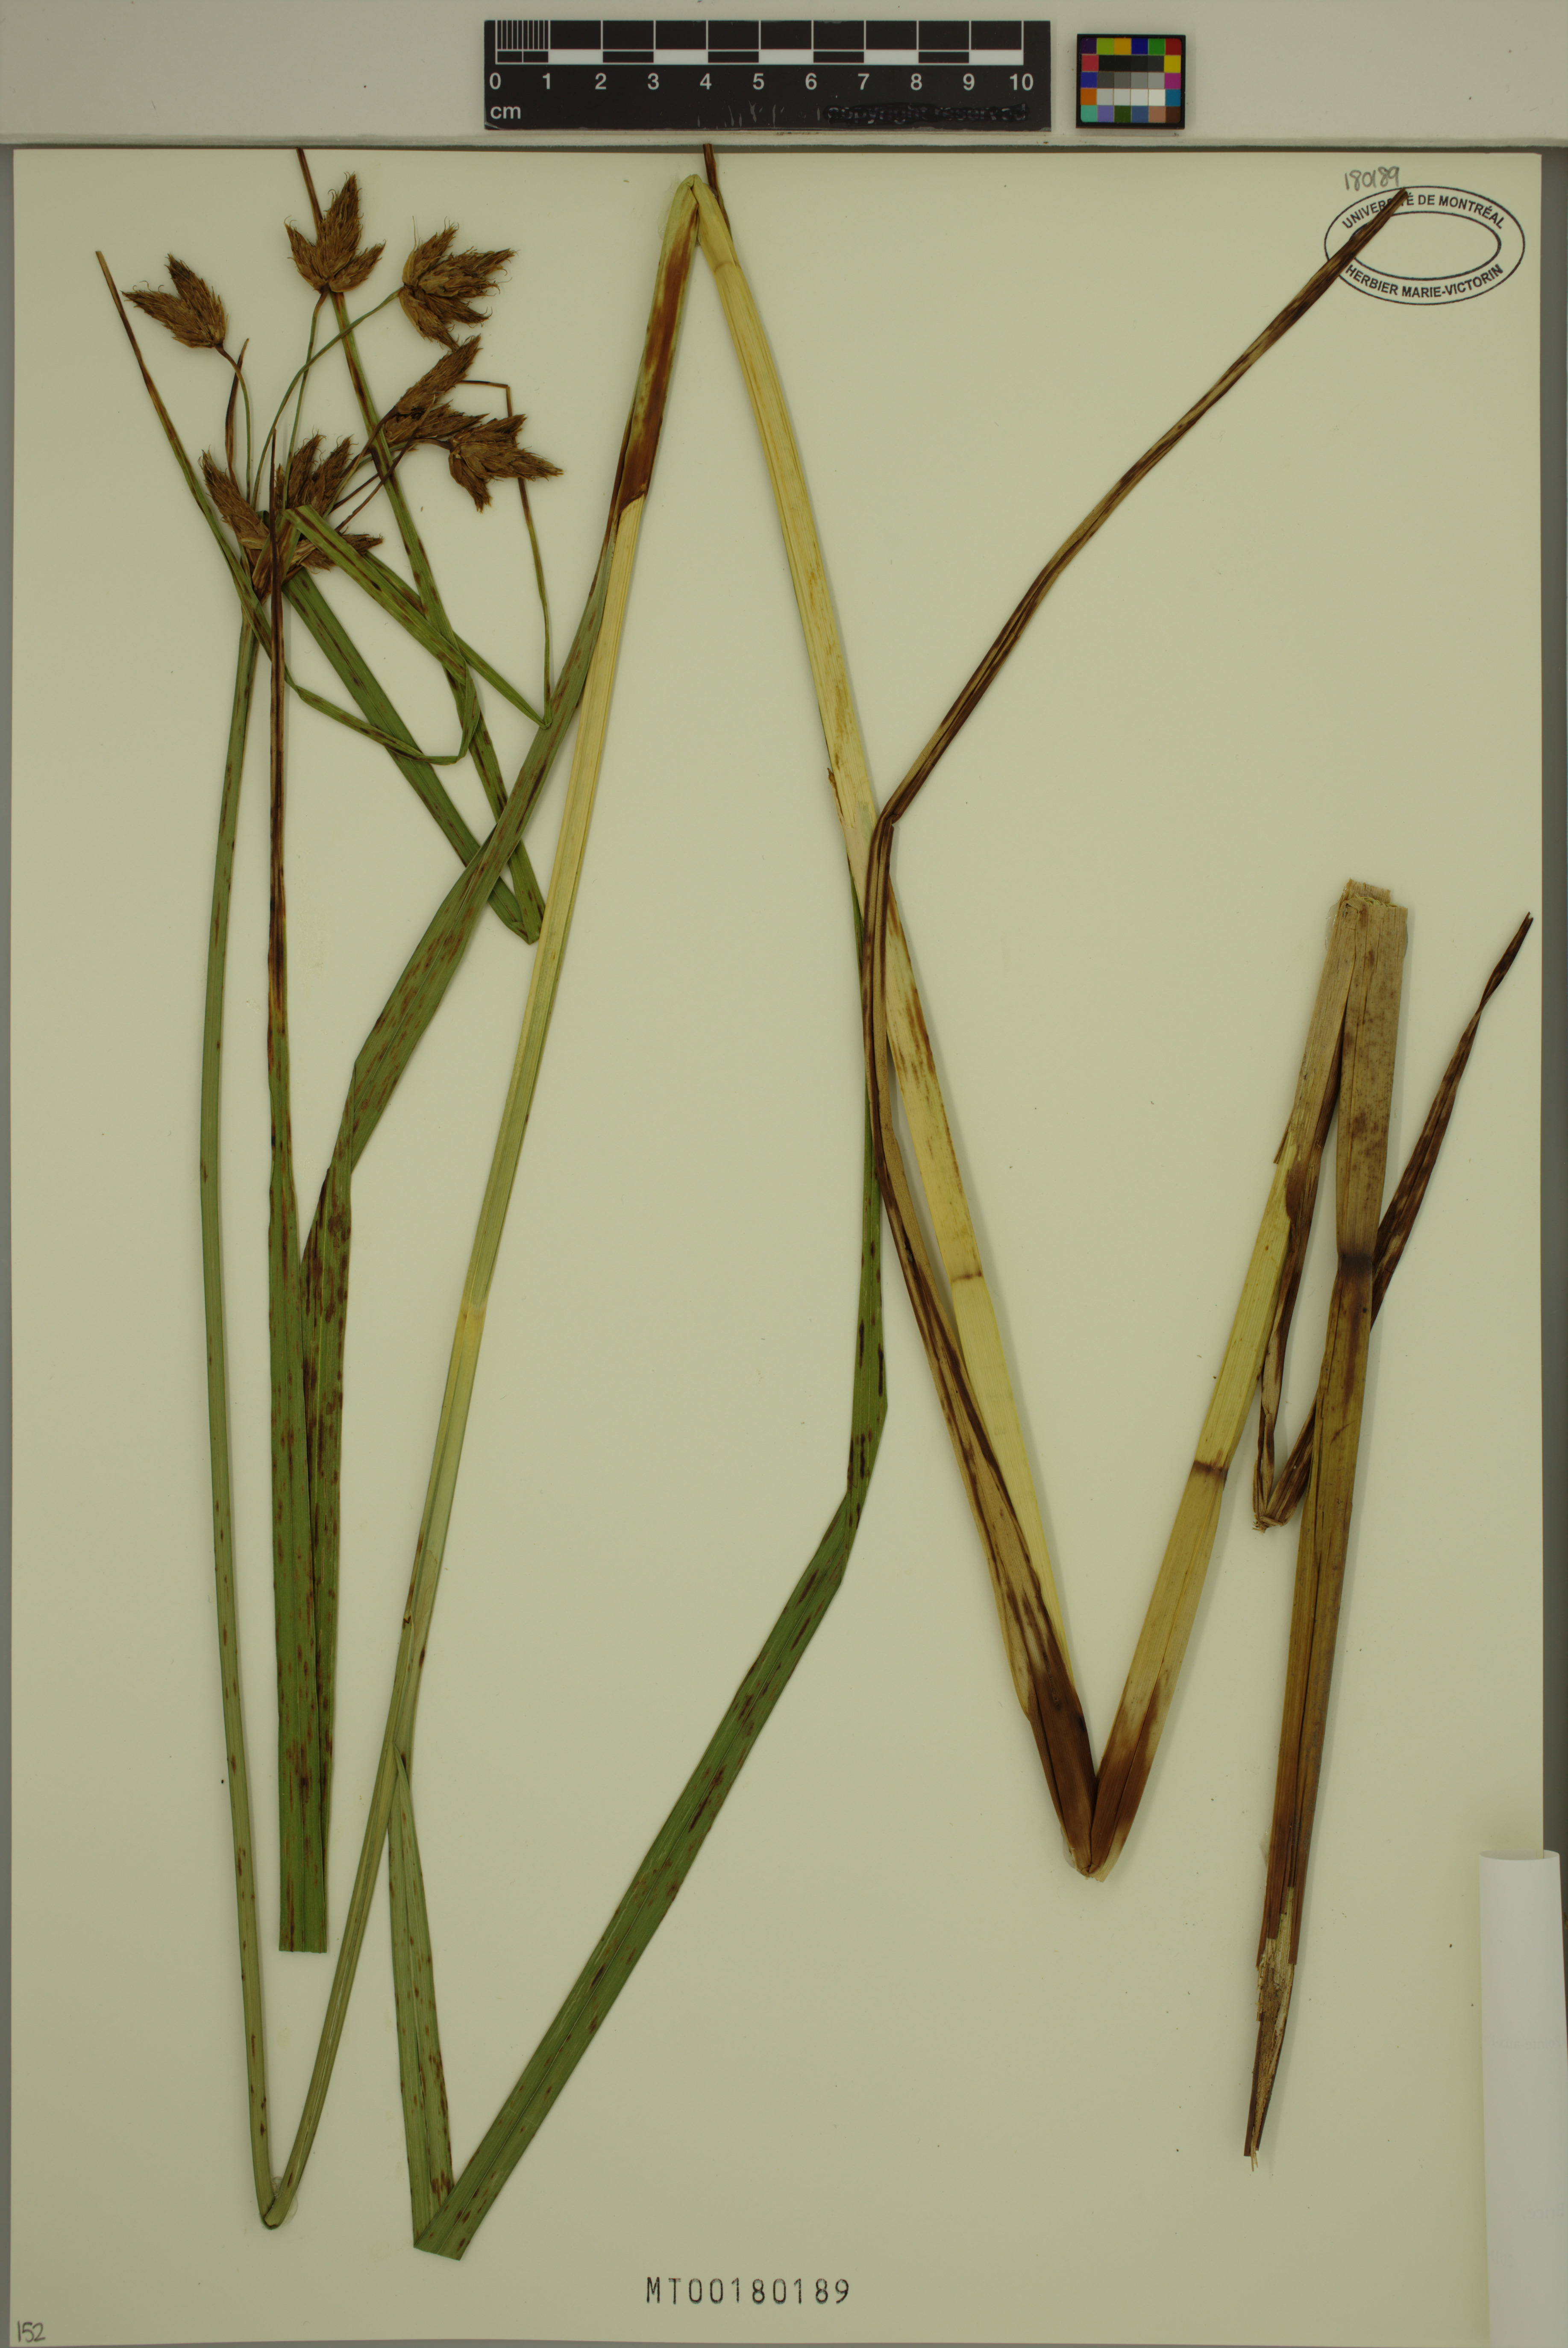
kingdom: Plantae
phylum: Tracheophyta
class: Liliopsida
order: Poales
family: Cyperaceae
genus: Bolboschoenus
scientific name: Bolboschoenus fluviatilis
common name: River bulrush
